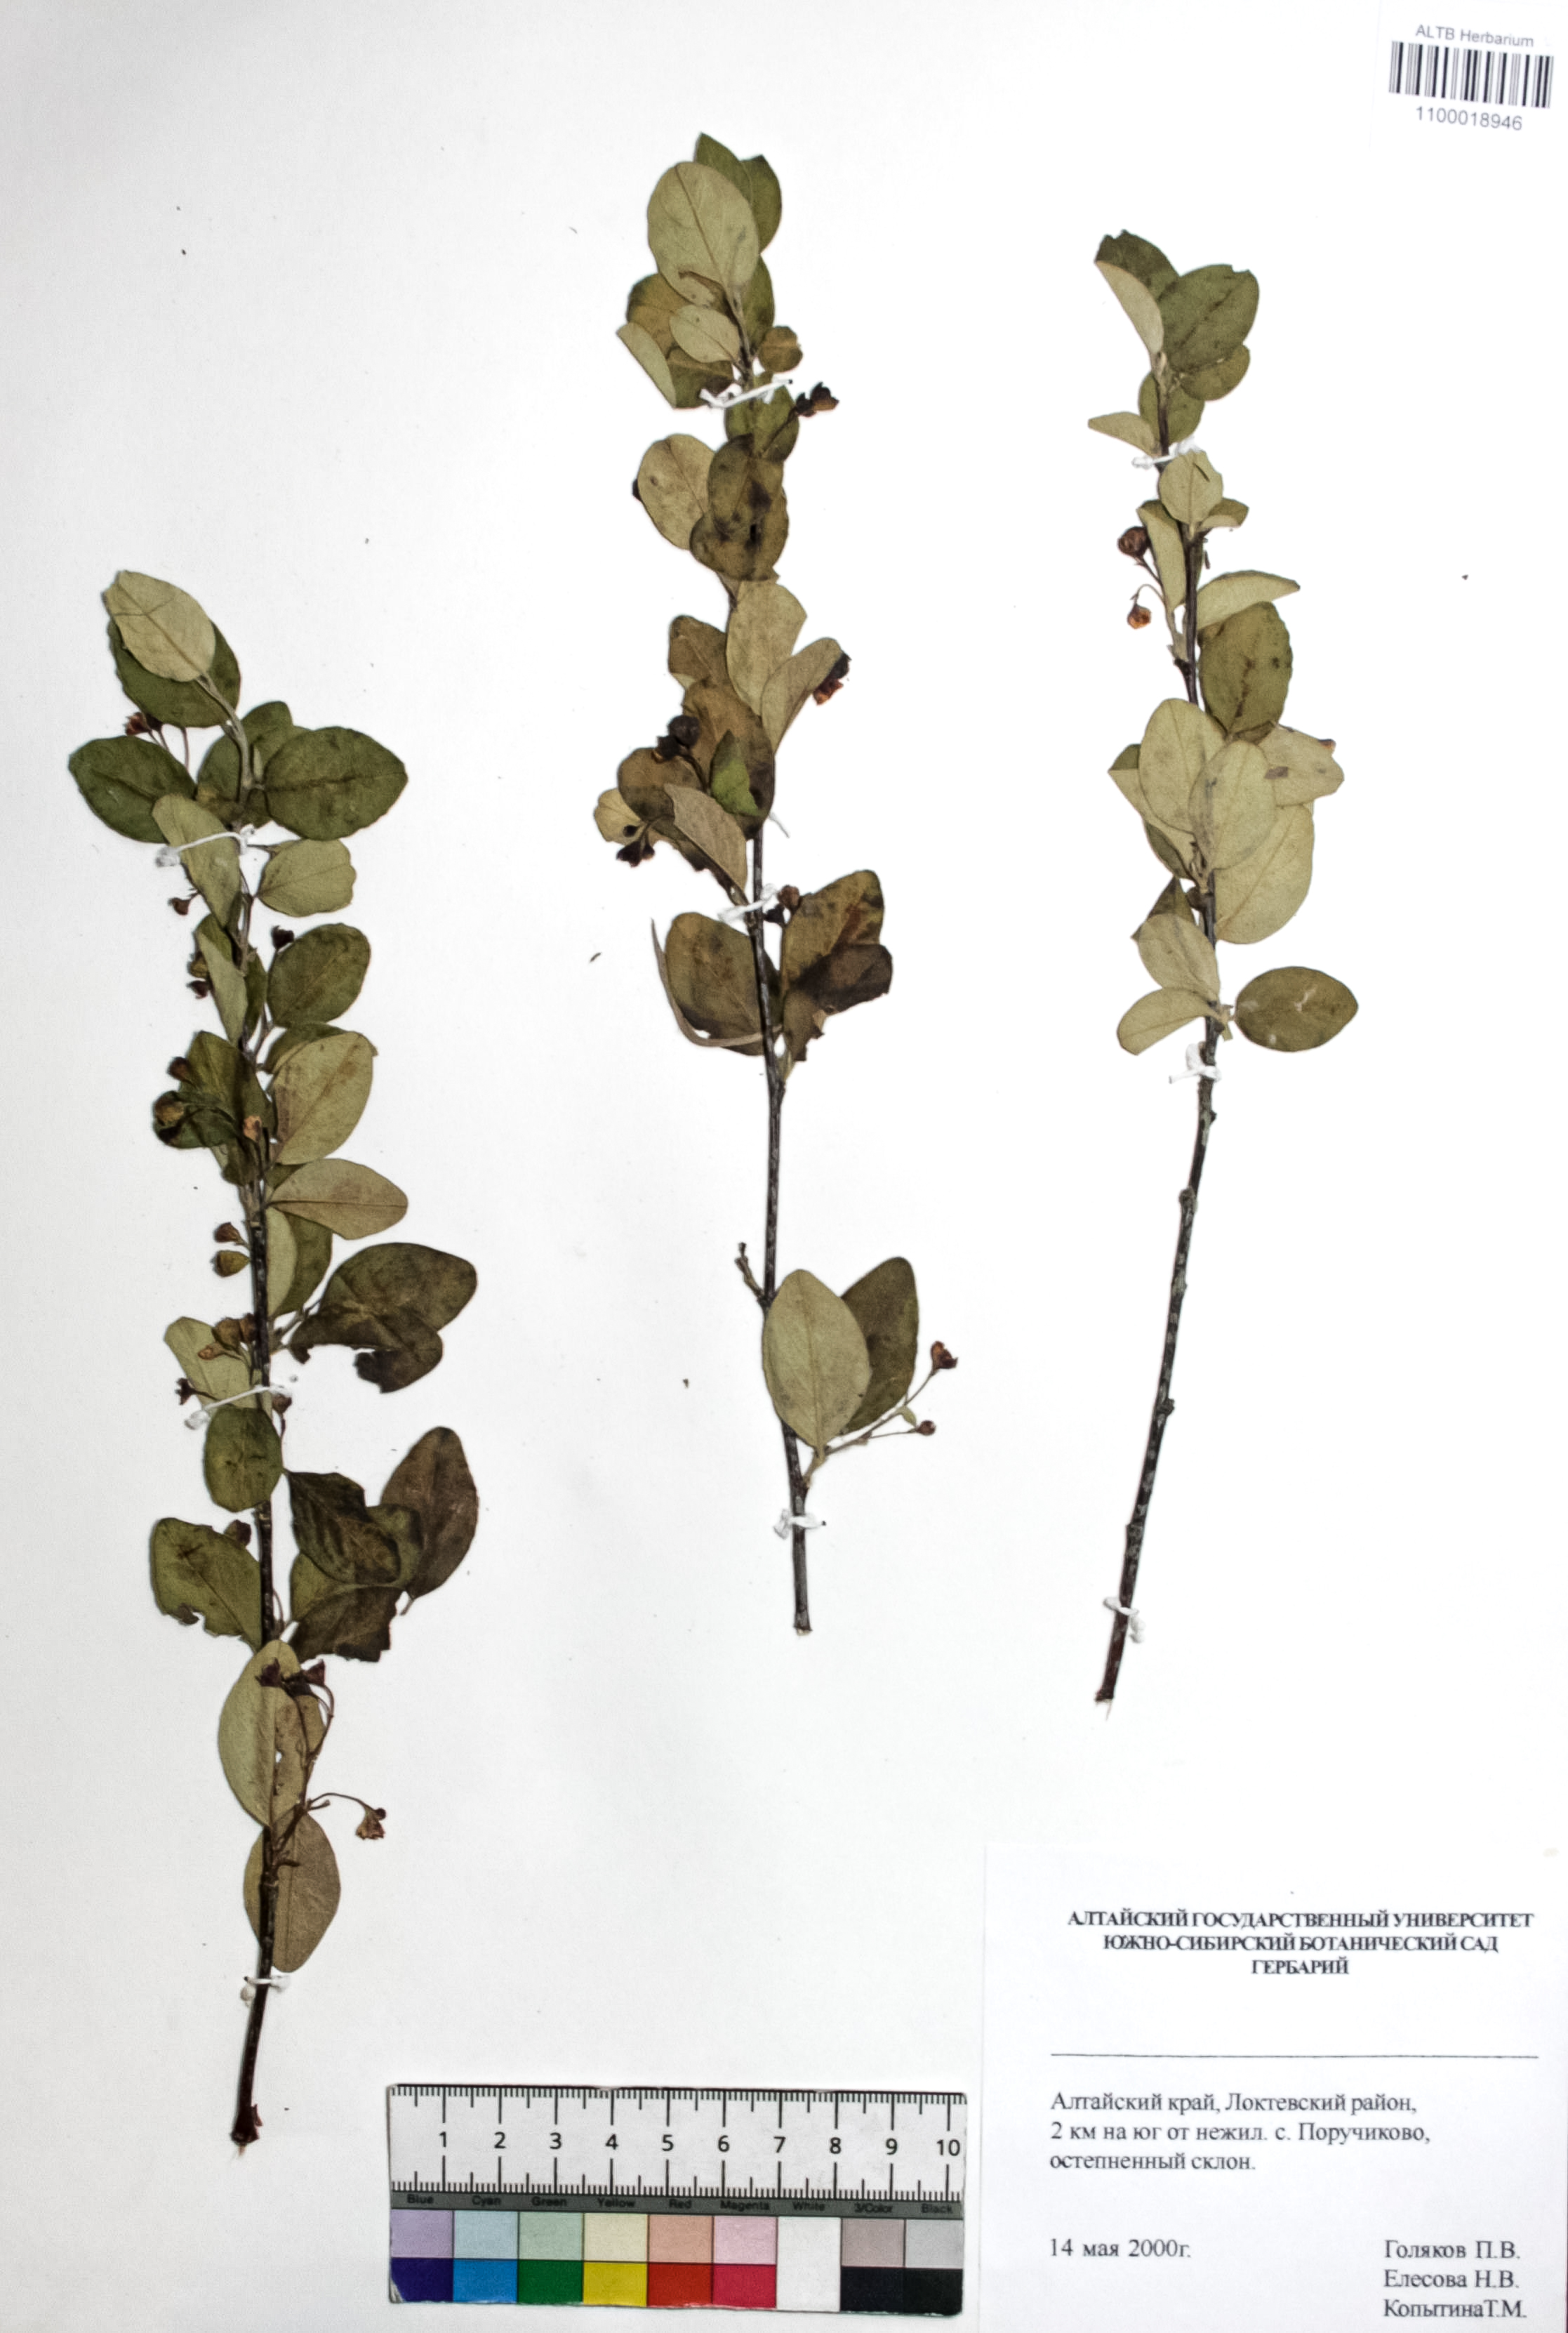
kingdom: Plantae
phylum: Tracheophyta
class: Magnoliopsida
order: Rosales
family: Rosaceae
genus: Cotoneaster
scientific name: Cotoneaster niger
